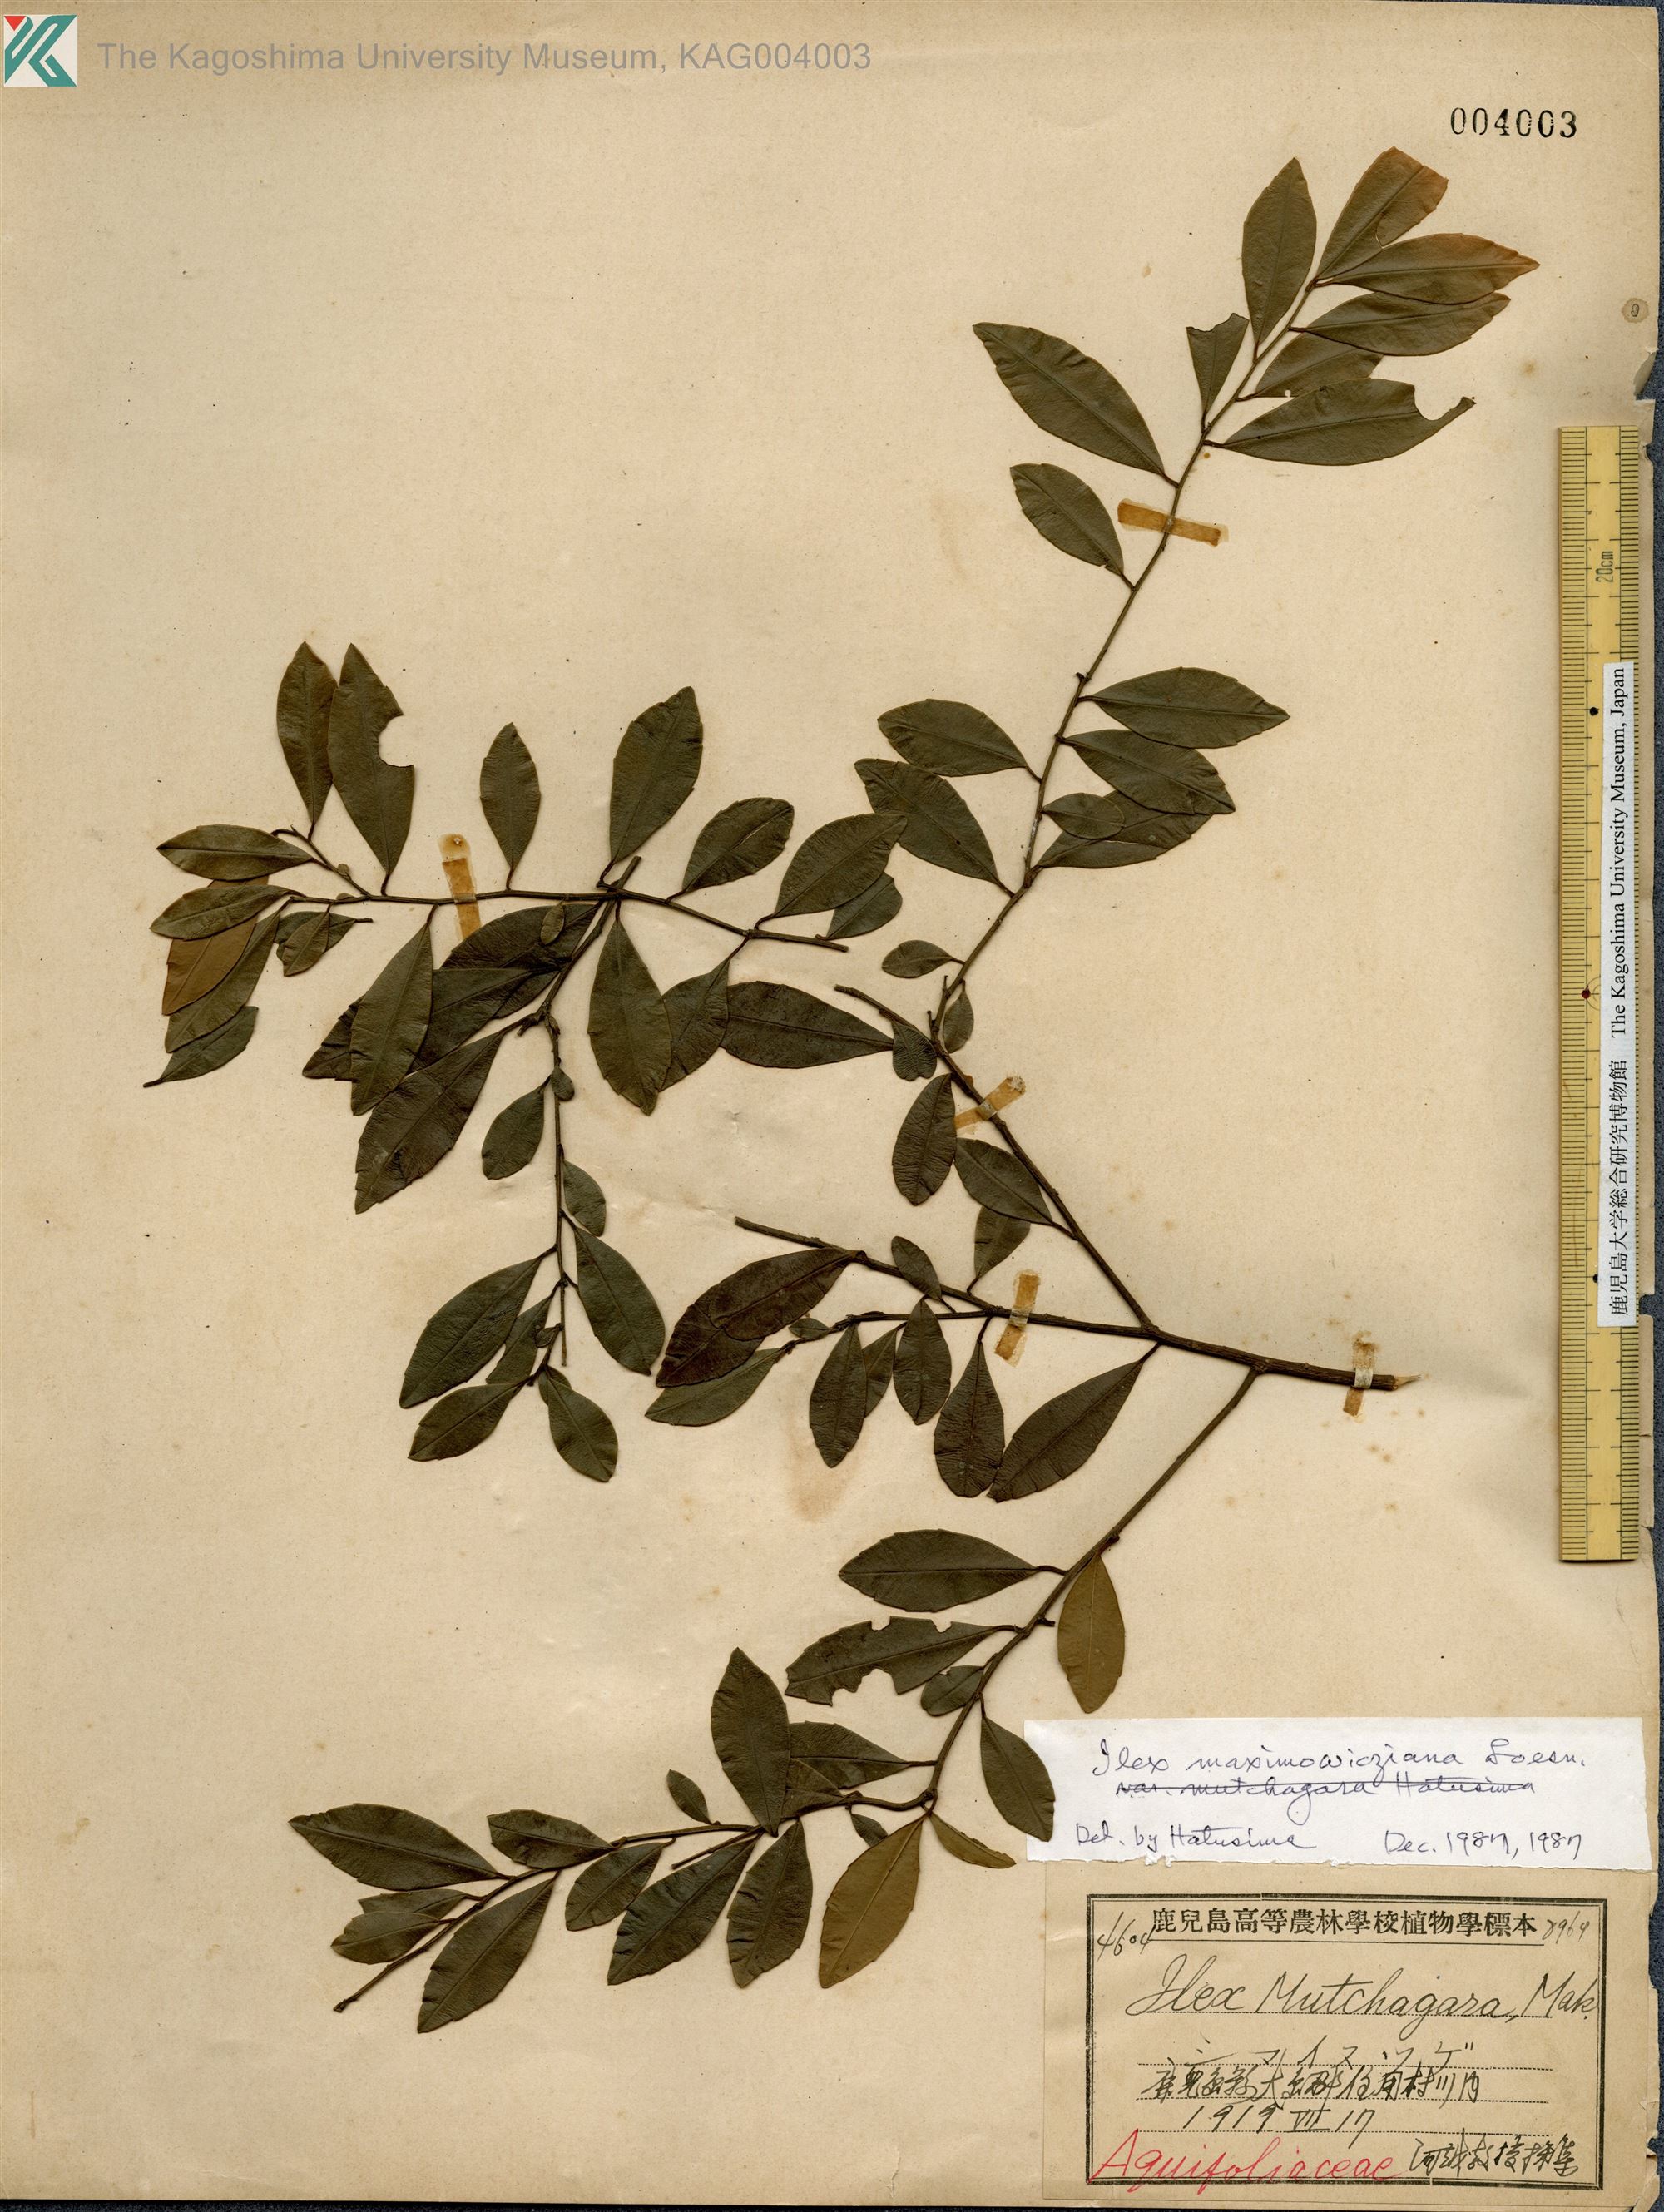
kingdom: Plantae
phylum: Tracheophyta
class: Magnoliopsida
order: Aquifoliales
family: Aquifoliaceae
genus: Ilex
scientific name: Ilex maximowicziana
